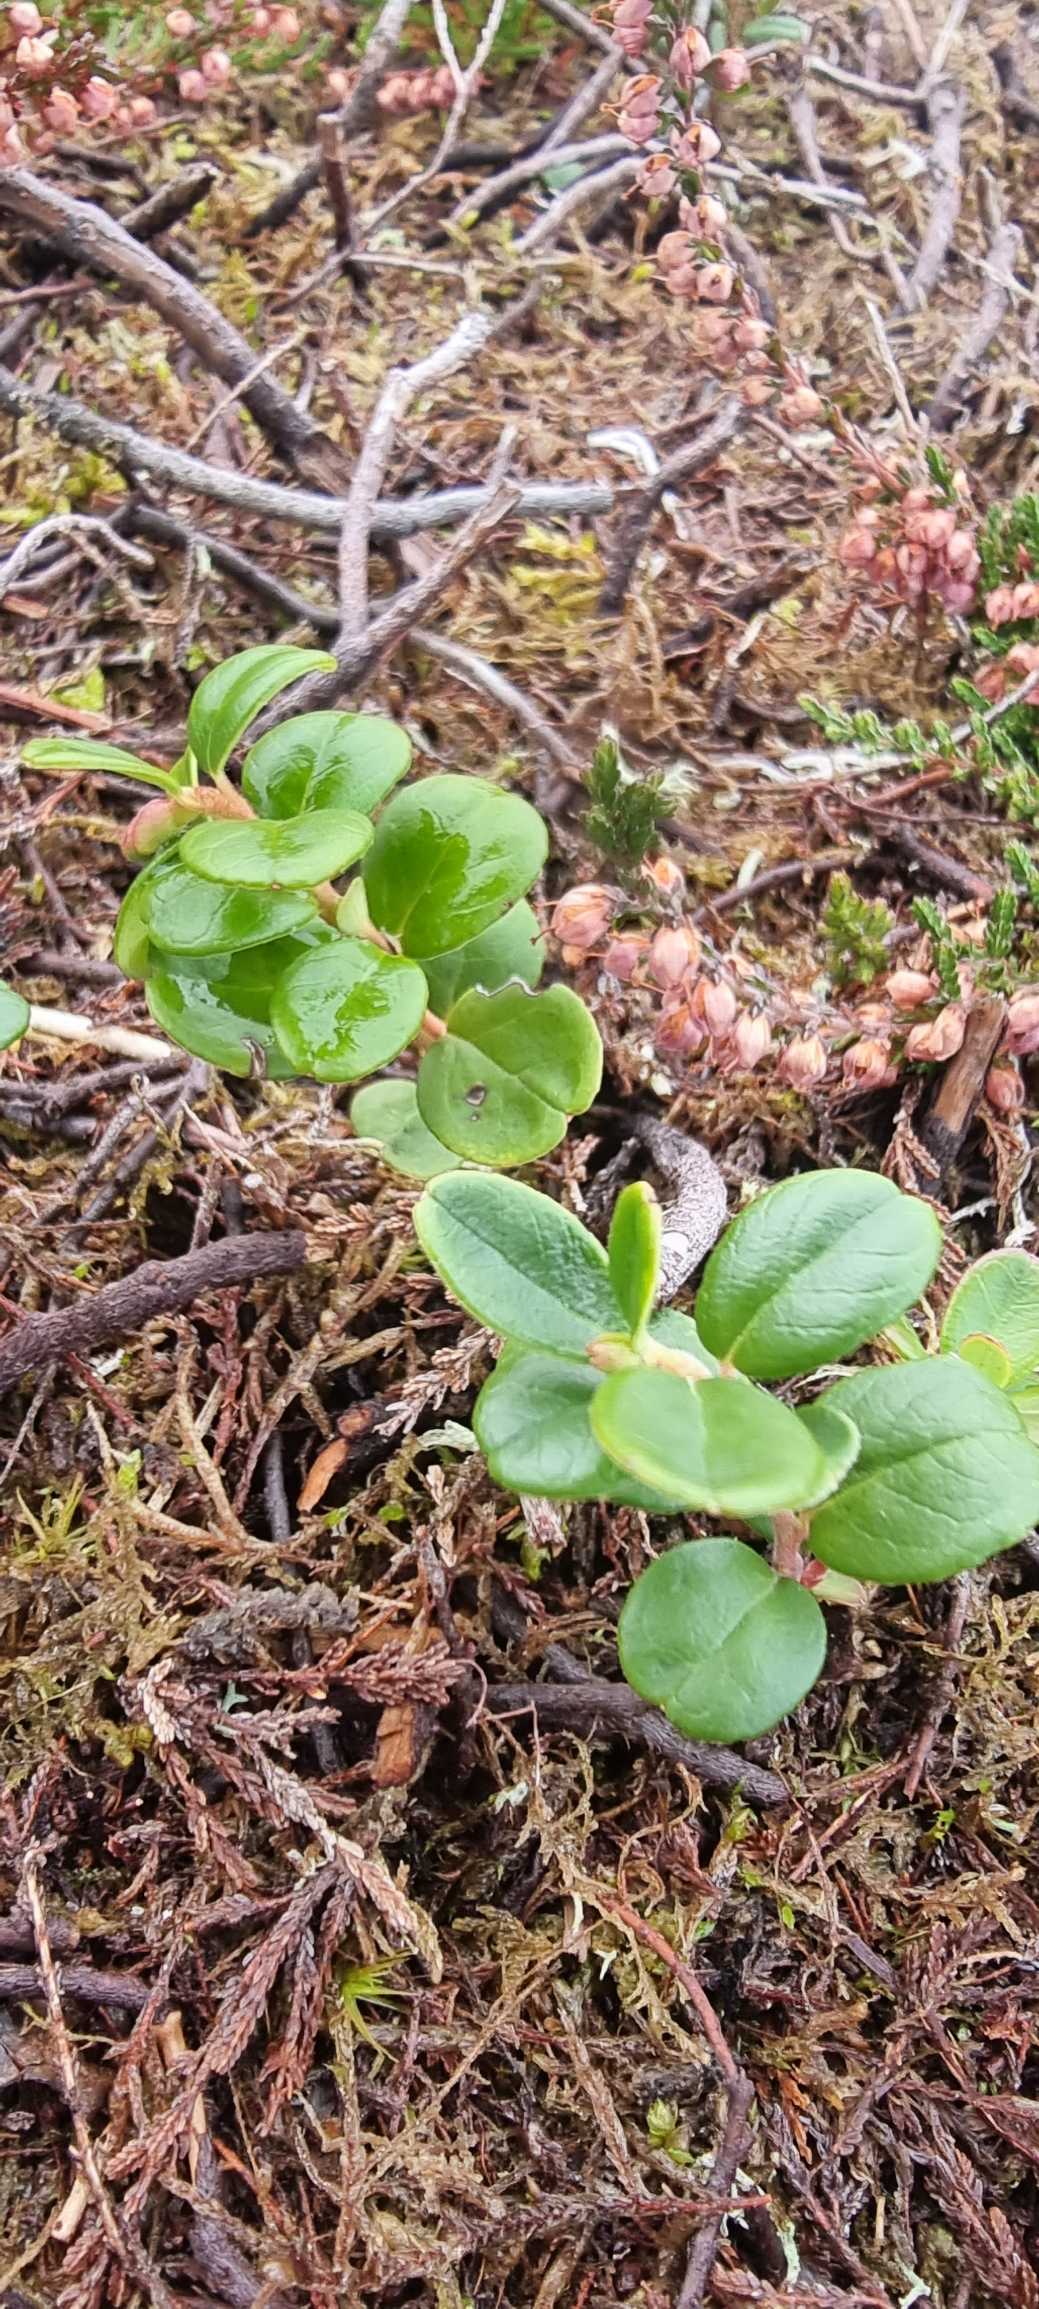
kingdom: Plantae
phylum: Tracheophyta
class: Magnoliopsida
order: Ericales
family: Ericaceae
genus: Vaccinium
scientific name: Vaccinium vitis-idaea
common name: Tyttebær
